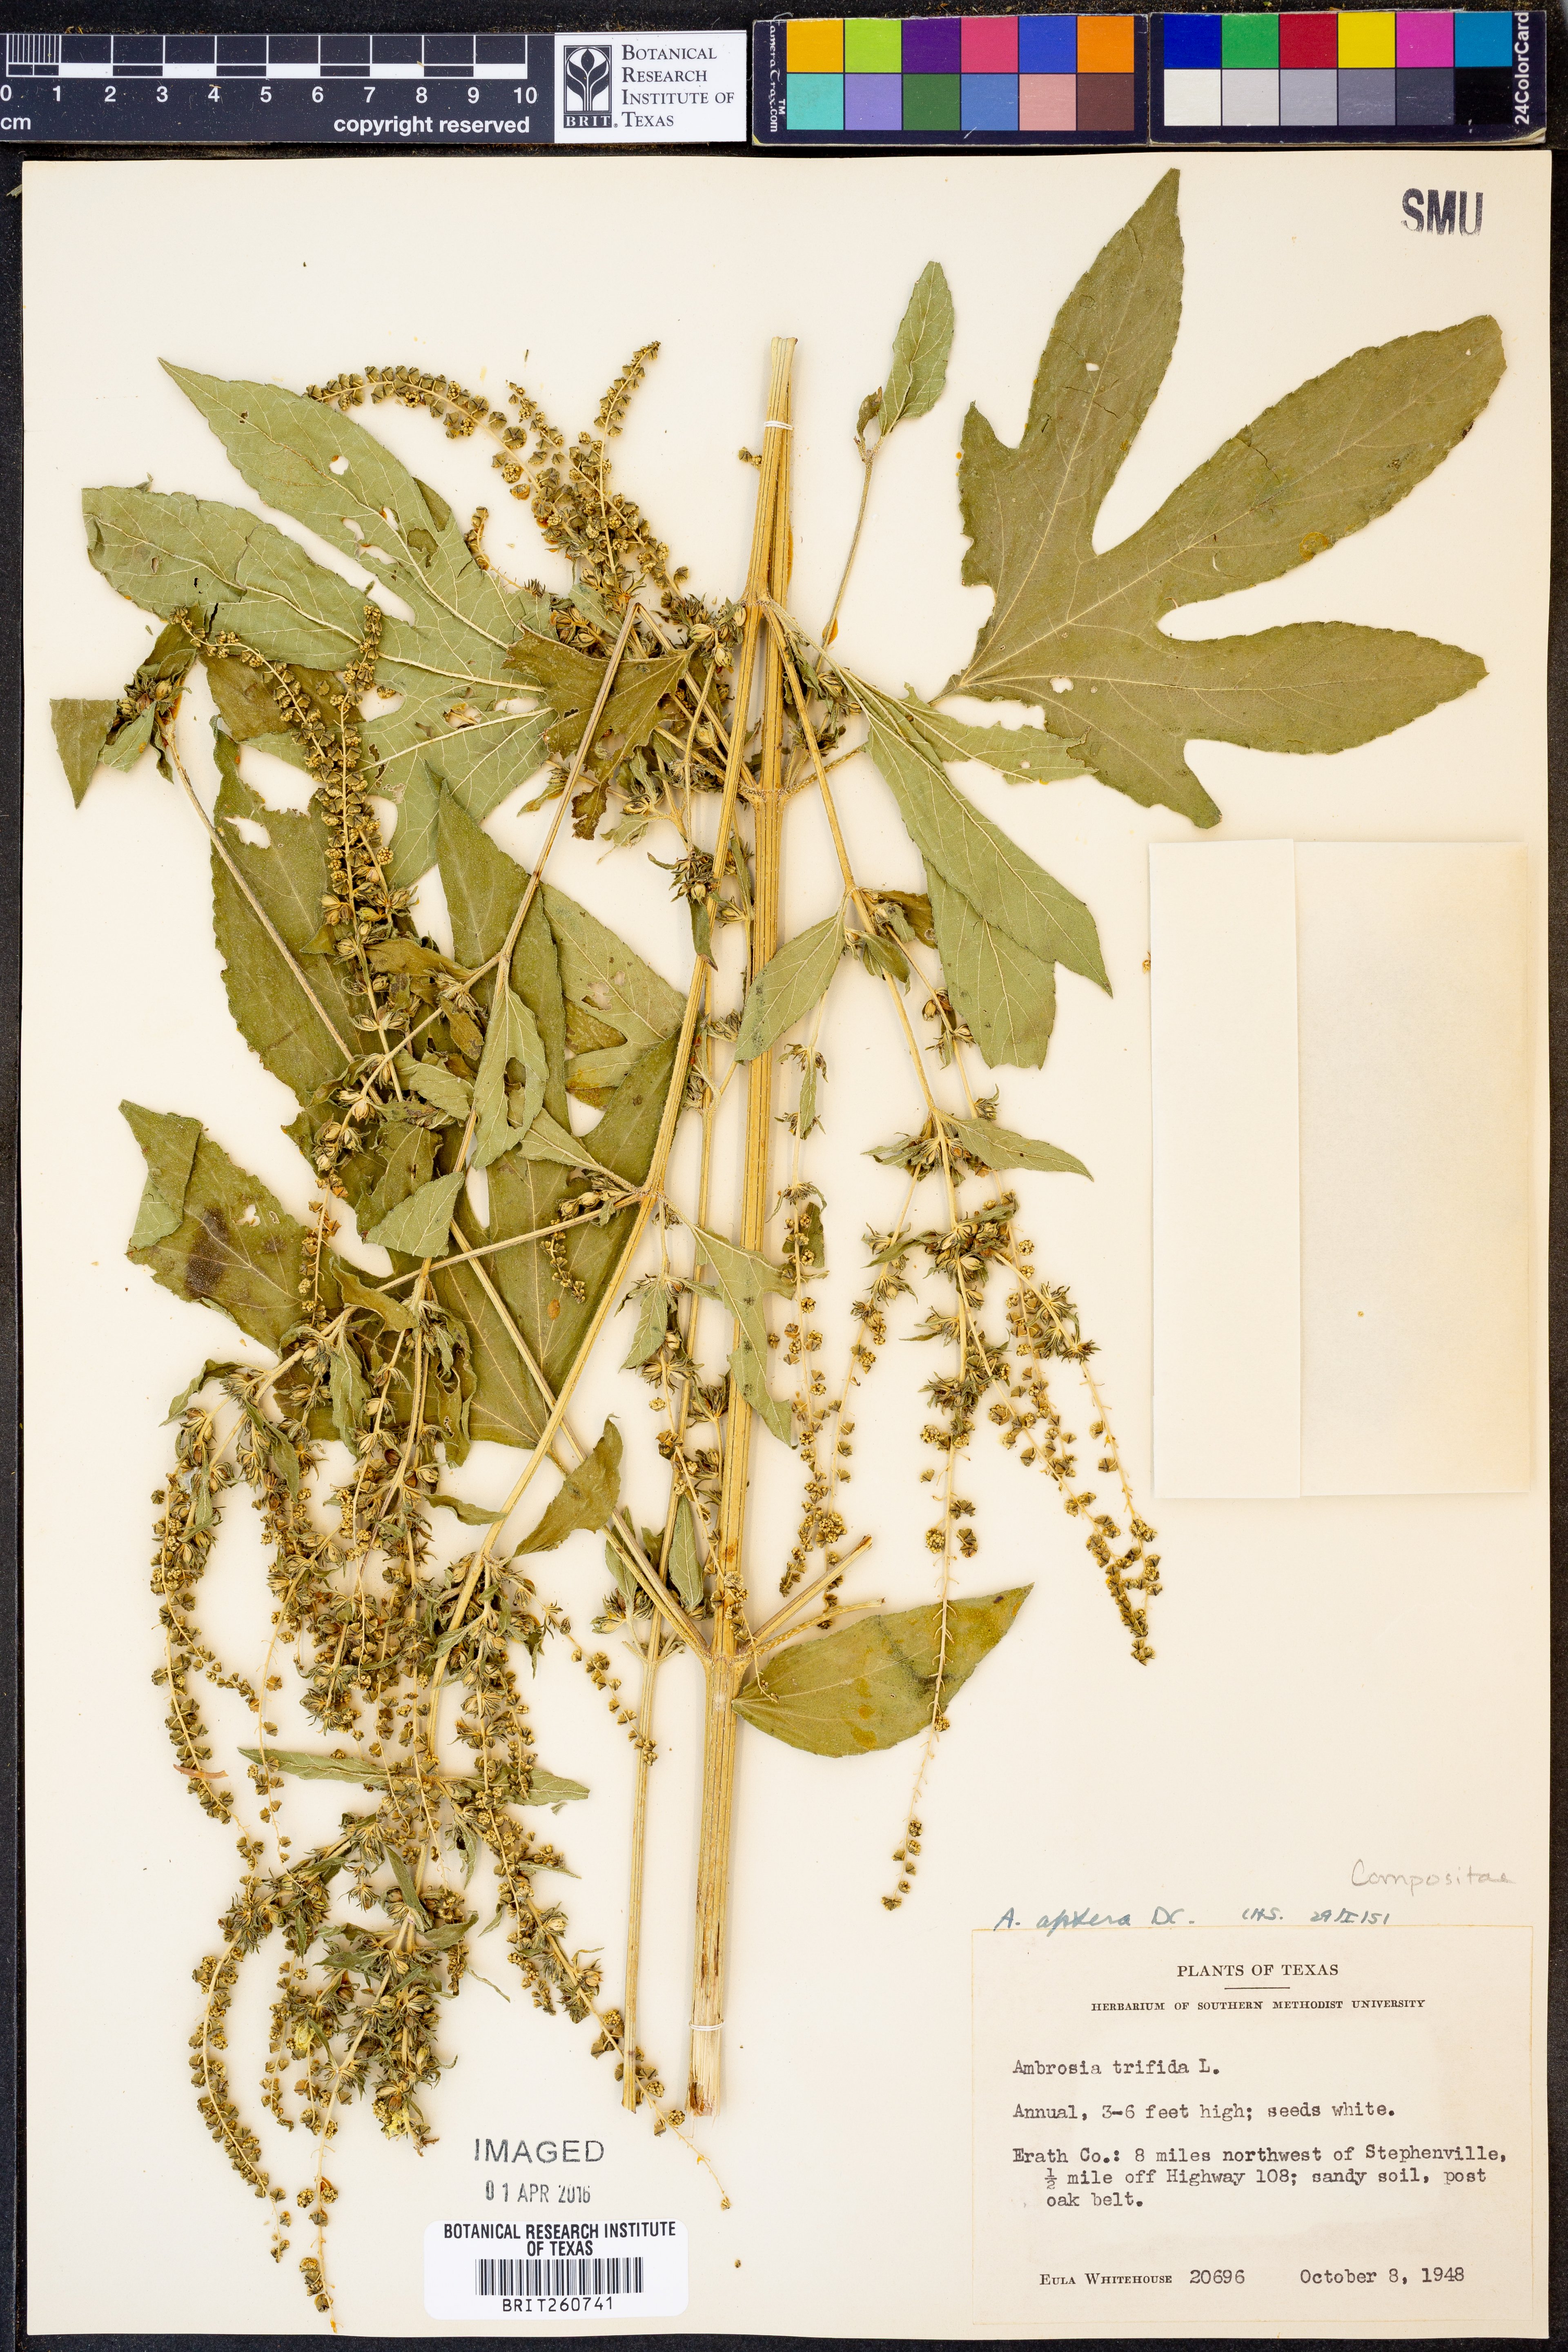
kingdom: Plantae
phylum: Tracheophyta
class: Magnoliopsida
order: Asterales
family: Asteraceae
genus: Ambrosia
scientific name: Ambrosia trifida
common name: Giant ragweed
